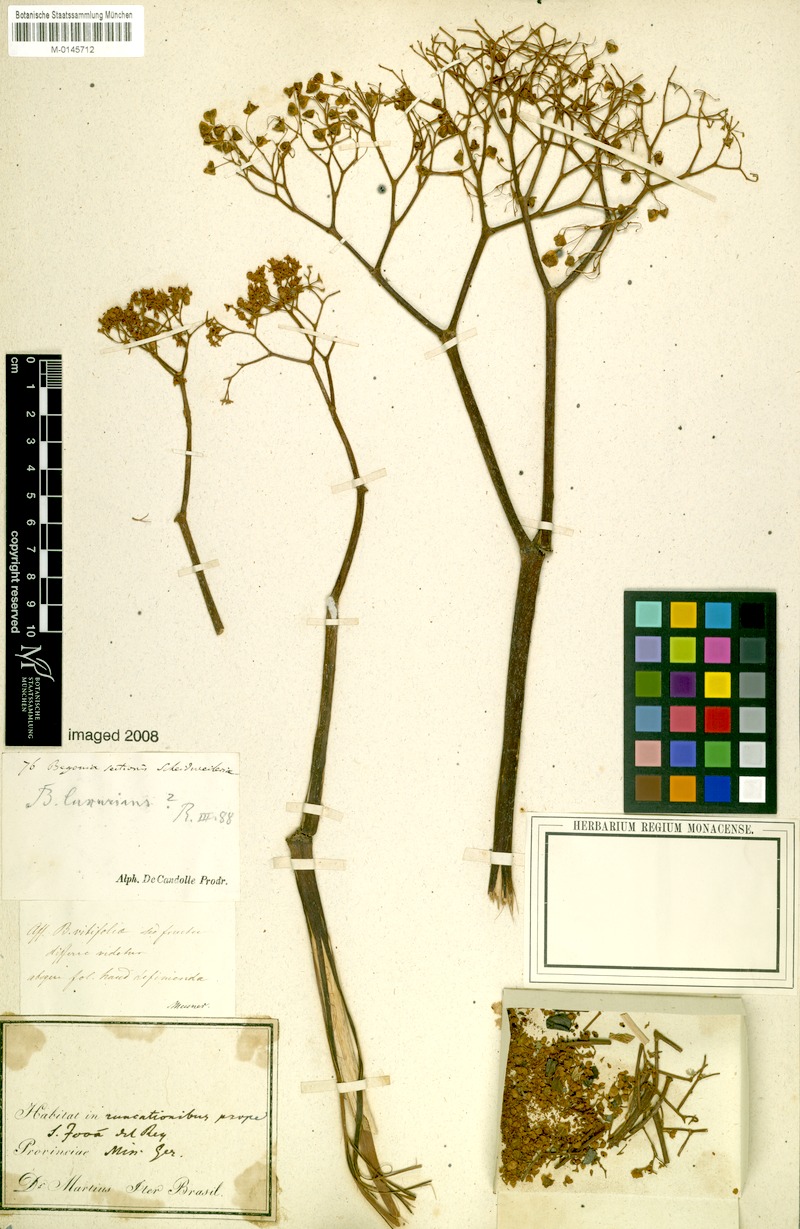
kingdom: Plantae
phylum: Tracheophyta
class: Magnoliopsida
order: Cucurbitales
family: Begoniaceae
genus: Begonia
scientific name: Begonia luxurians
